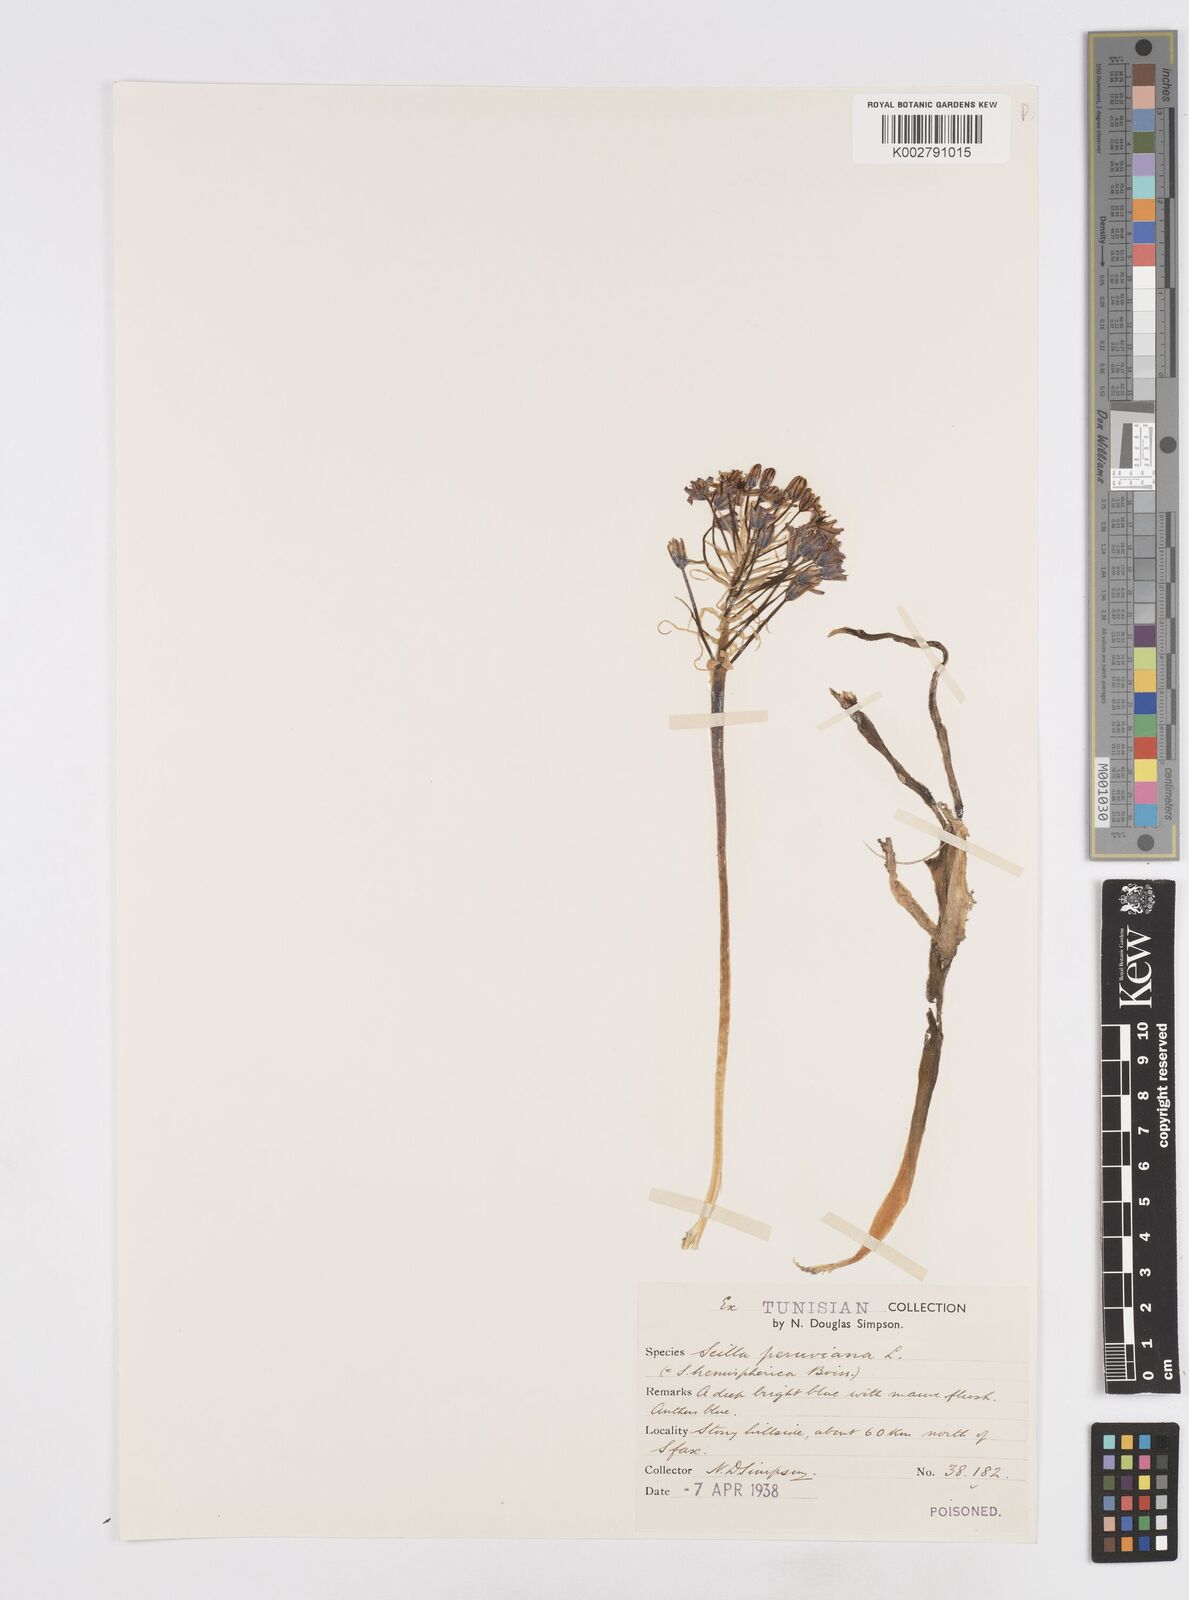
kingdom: Plantae
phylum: Tracheophyta
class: Liliopsida
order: Asparagales
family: Asparagaceae
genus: Scilla
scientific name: Scilla peruviana
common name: Portuguese squill
